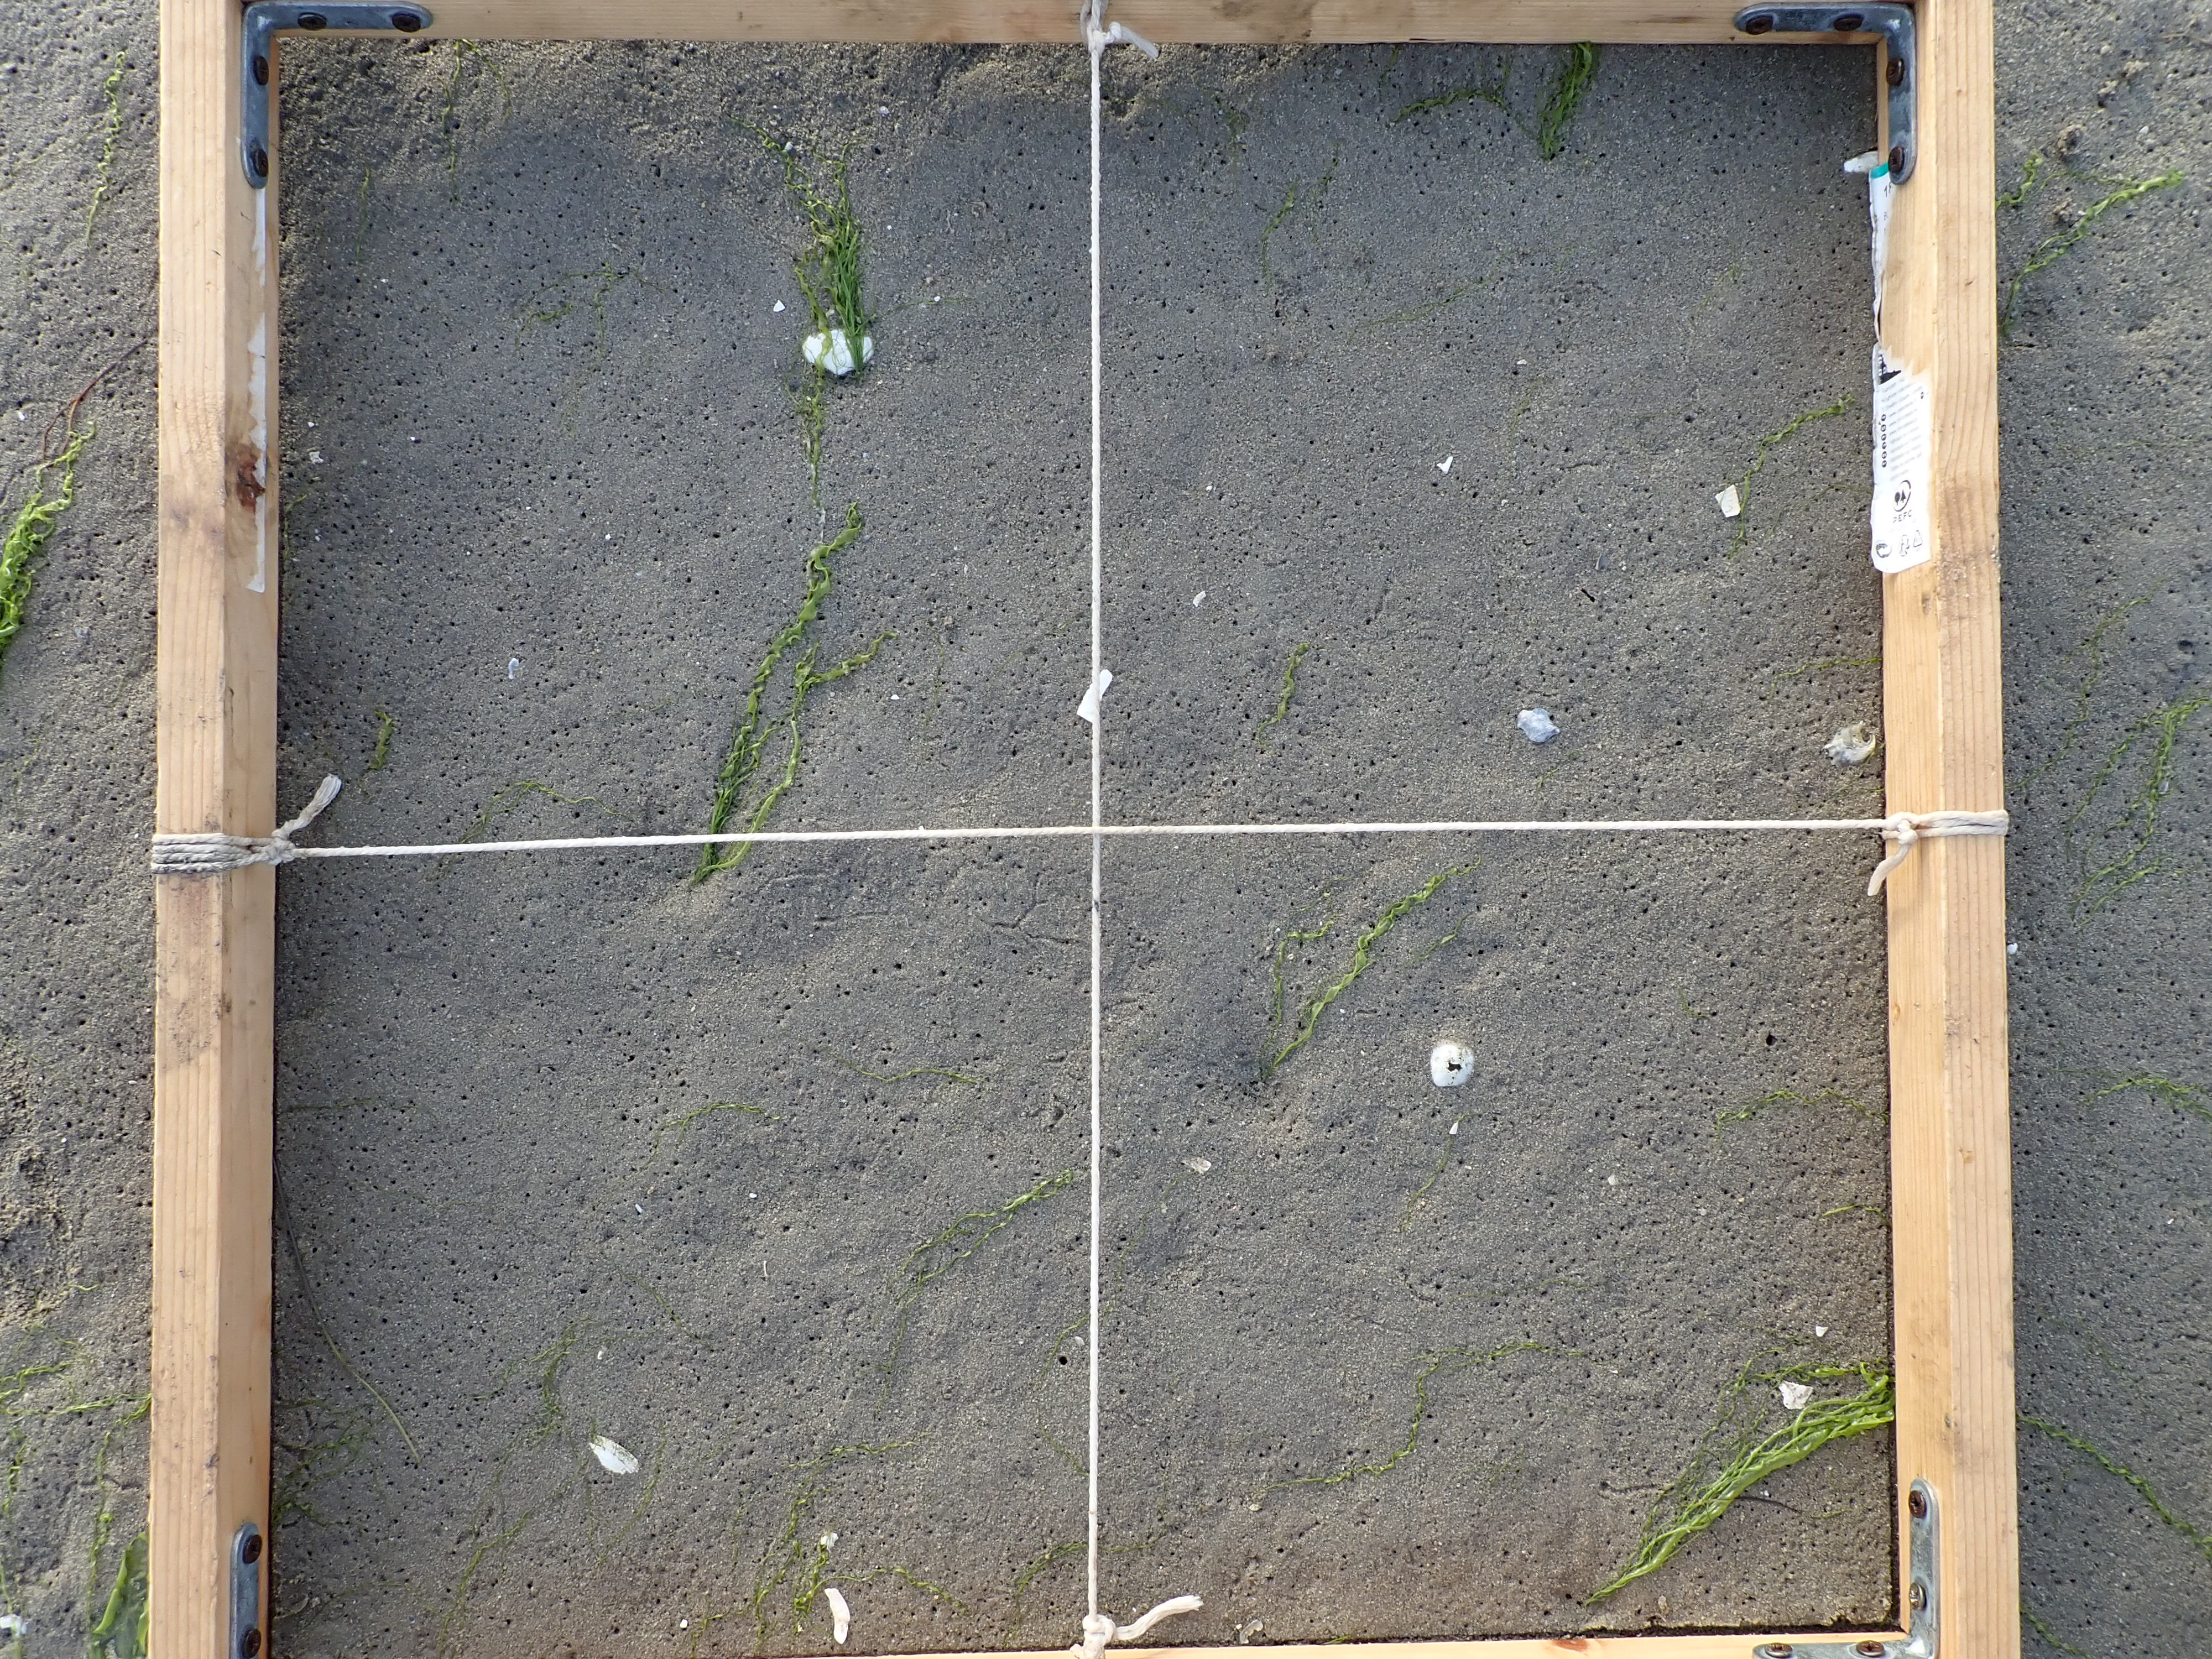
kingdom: Plantae
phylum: Chlorophyta
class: Ulvophyceae
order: Ulvales
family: Ulvaceae
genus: Ulva
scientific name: Ulva
